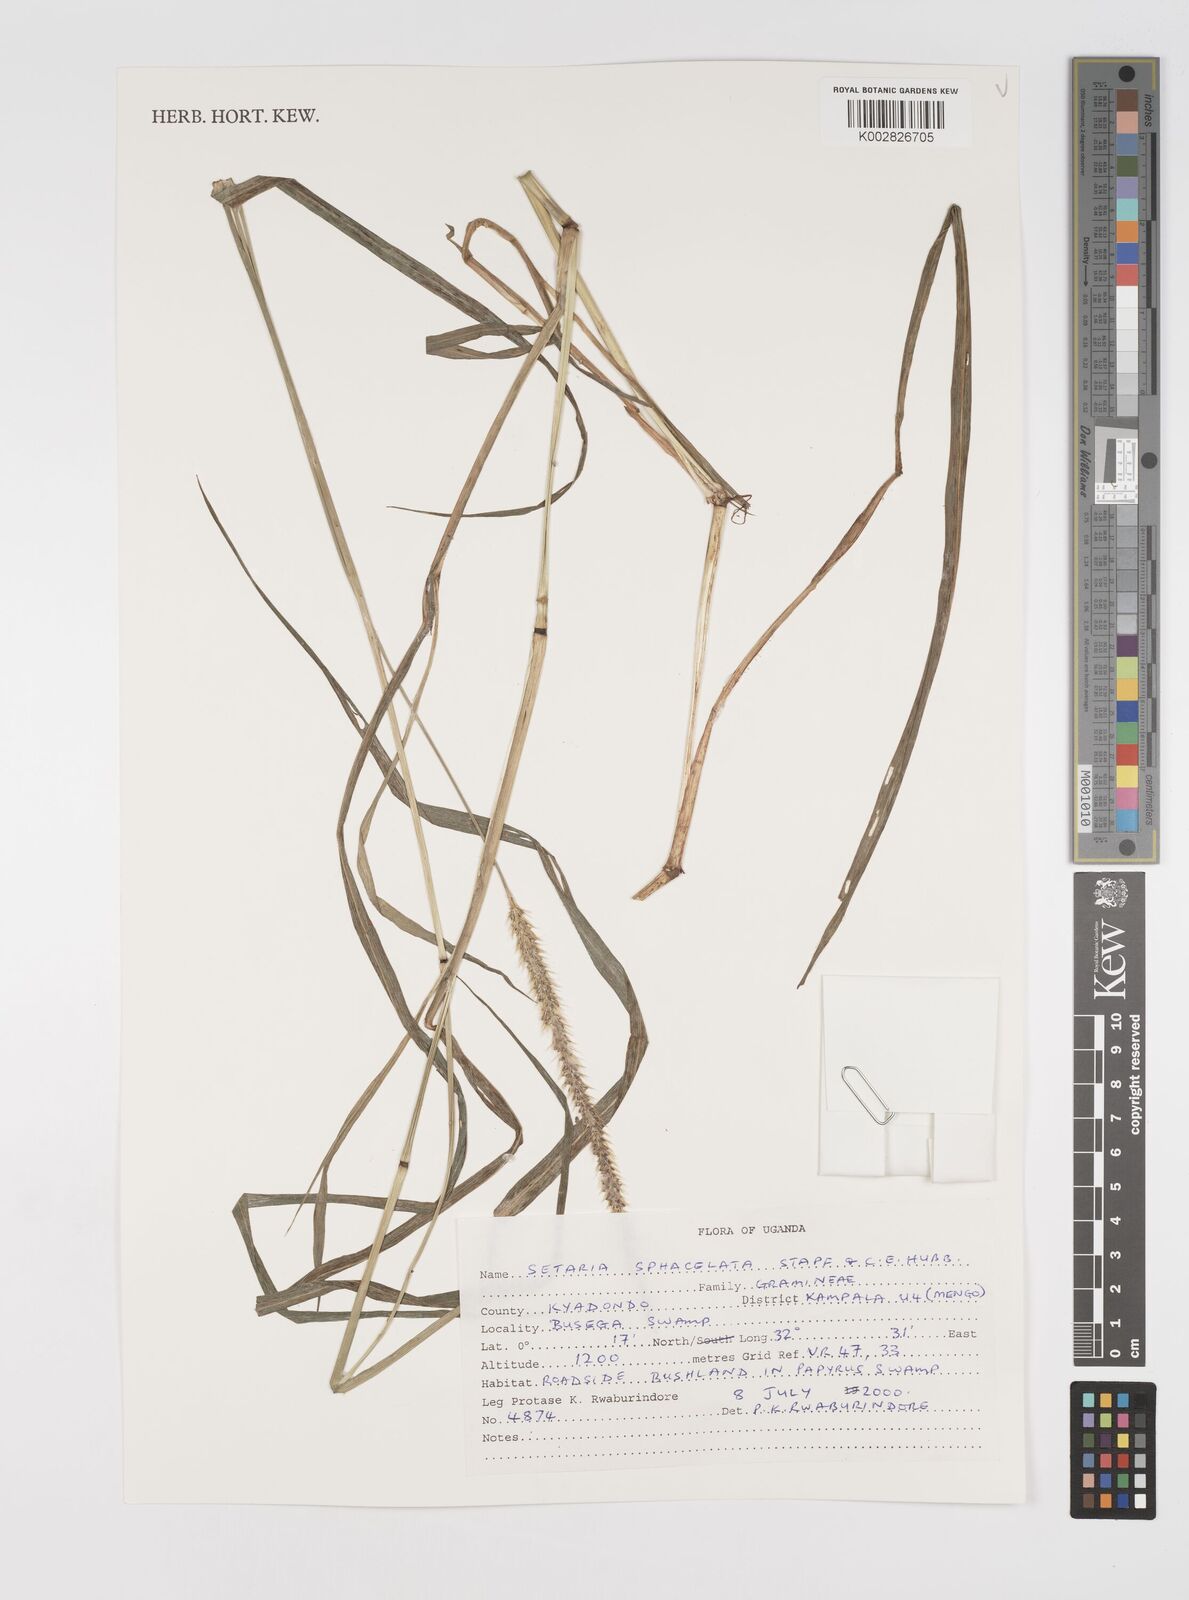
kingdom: Plantae
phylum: Tracheophyta
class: Liliopsida
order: Poales
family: Poaceae
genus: Setaria
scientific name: Setaria sphacelata
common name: African bristlegrass
